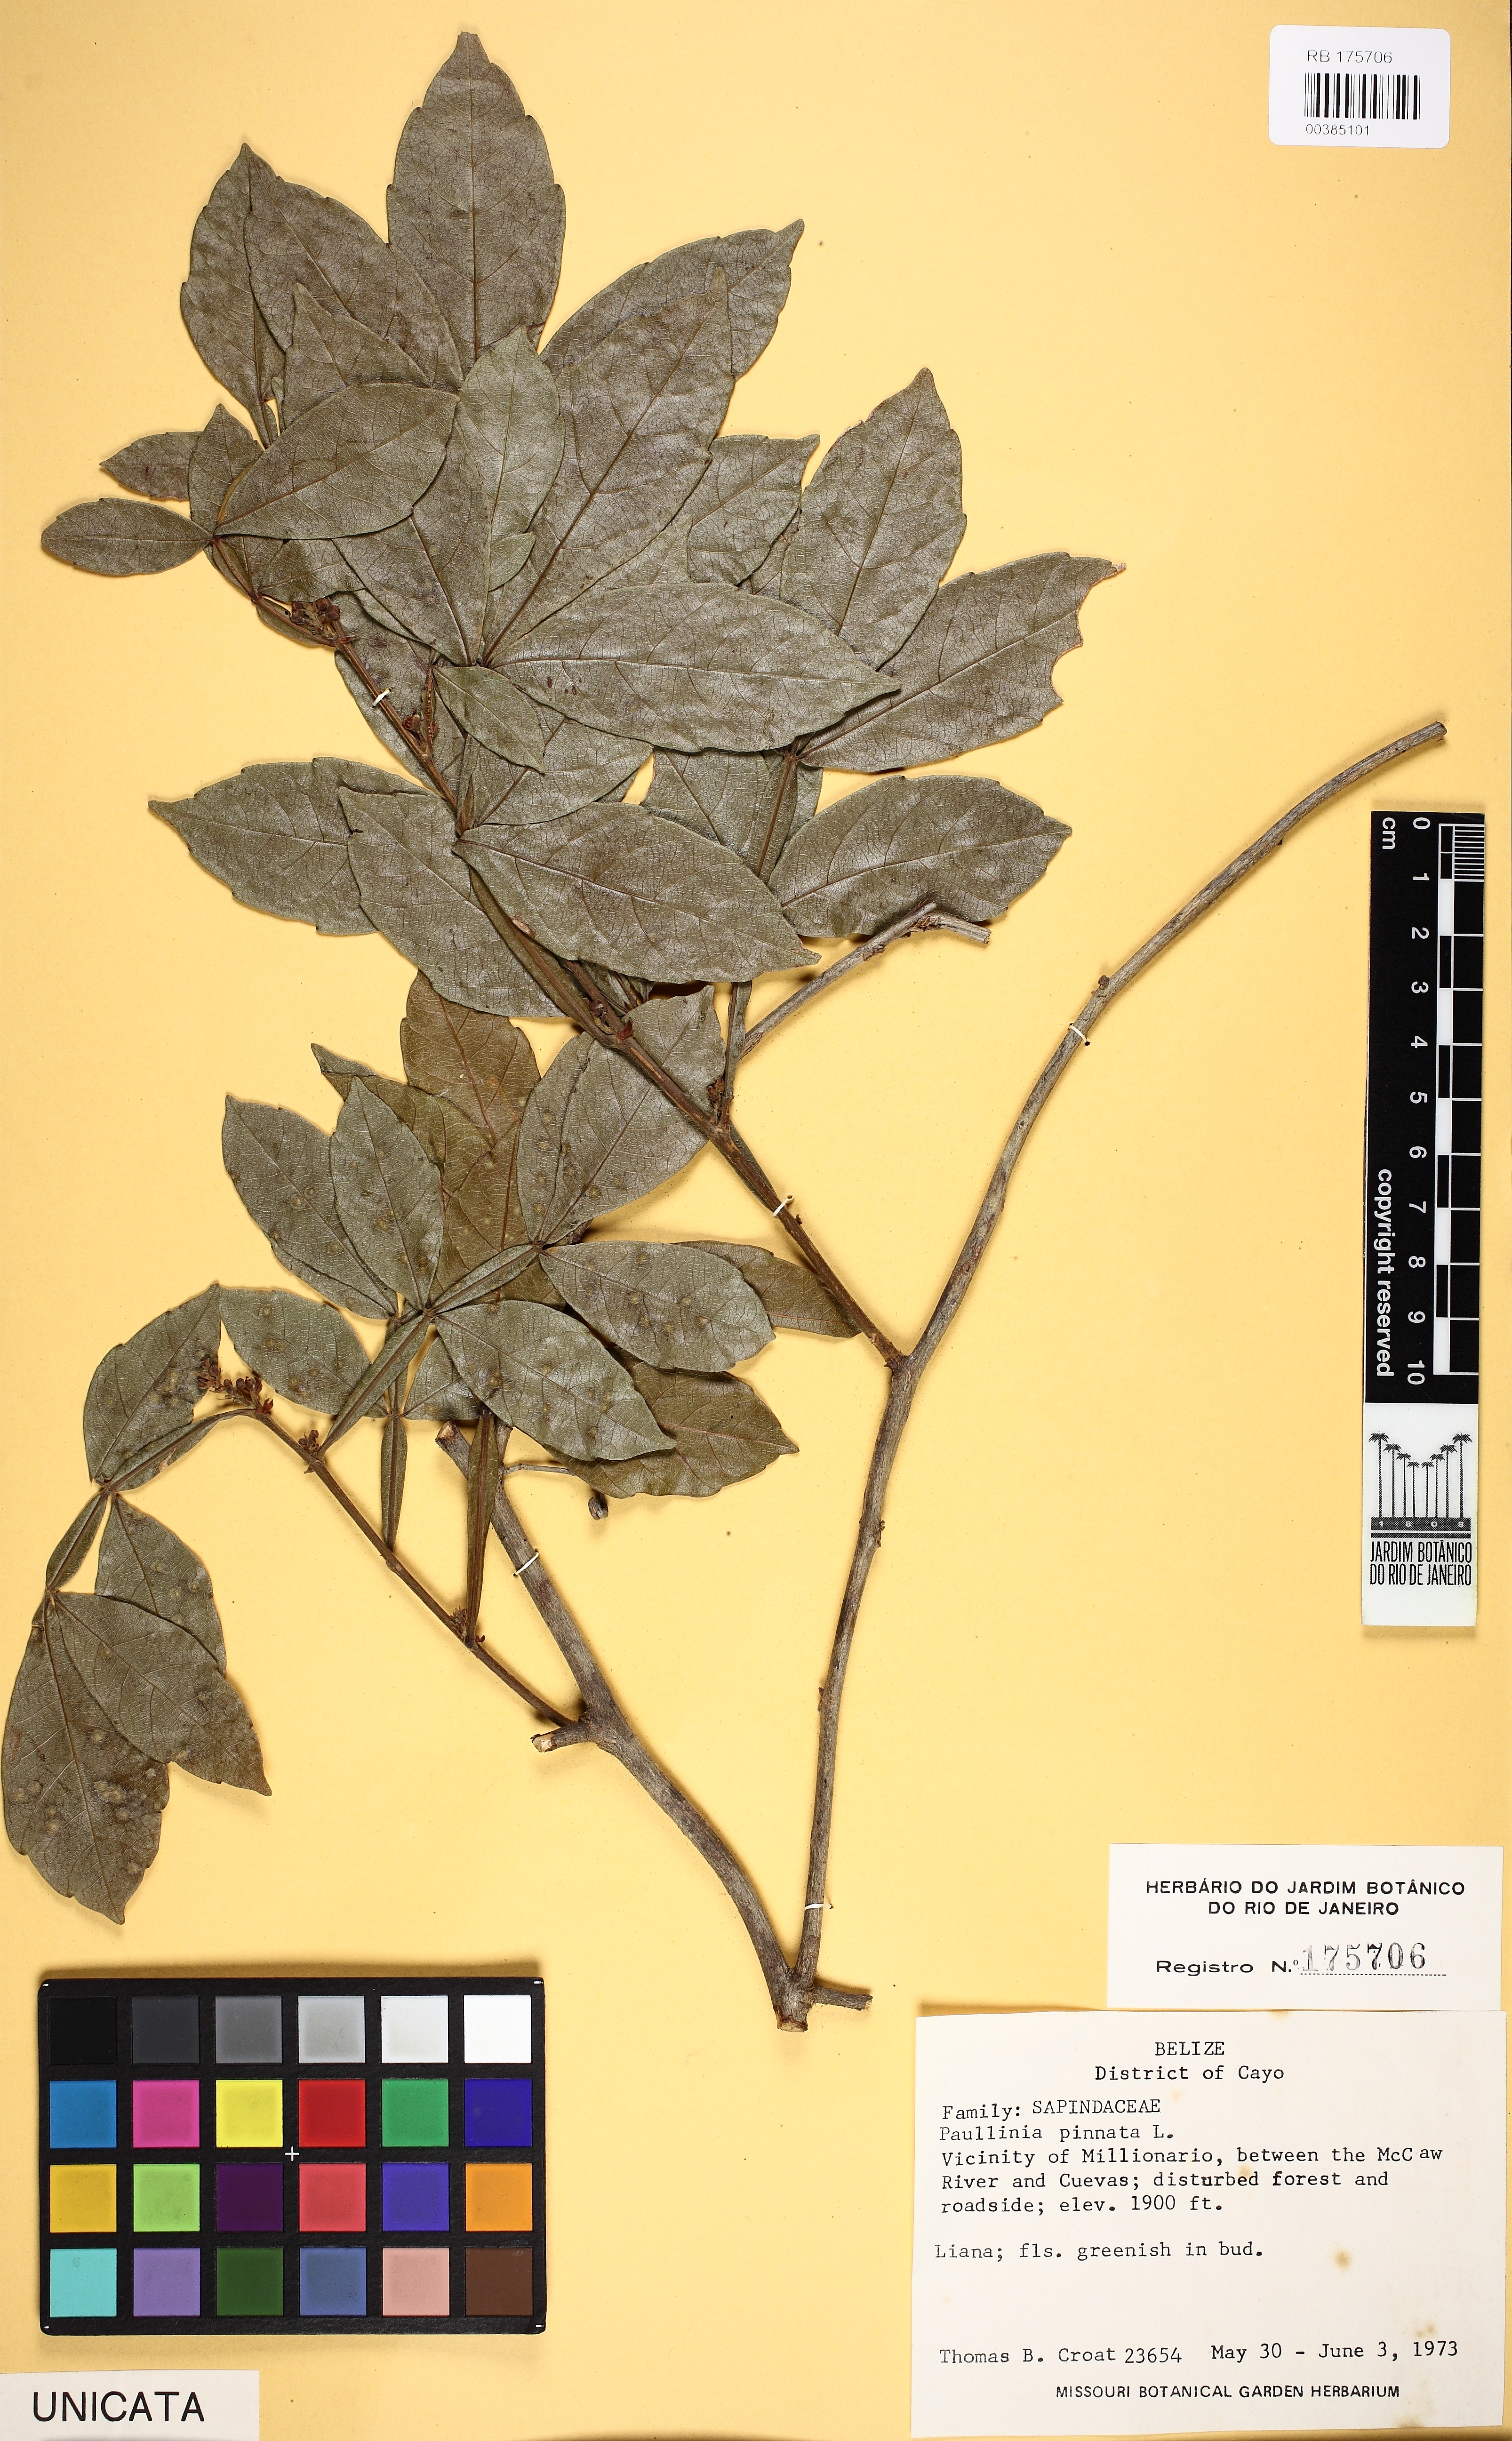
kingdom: Plantae
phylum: Tracheophyta
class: Magnoliopsida
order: Sapindales
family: Sapindaceae
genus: Paullinia
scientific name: Paullinia pinnata
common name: Barbasco
